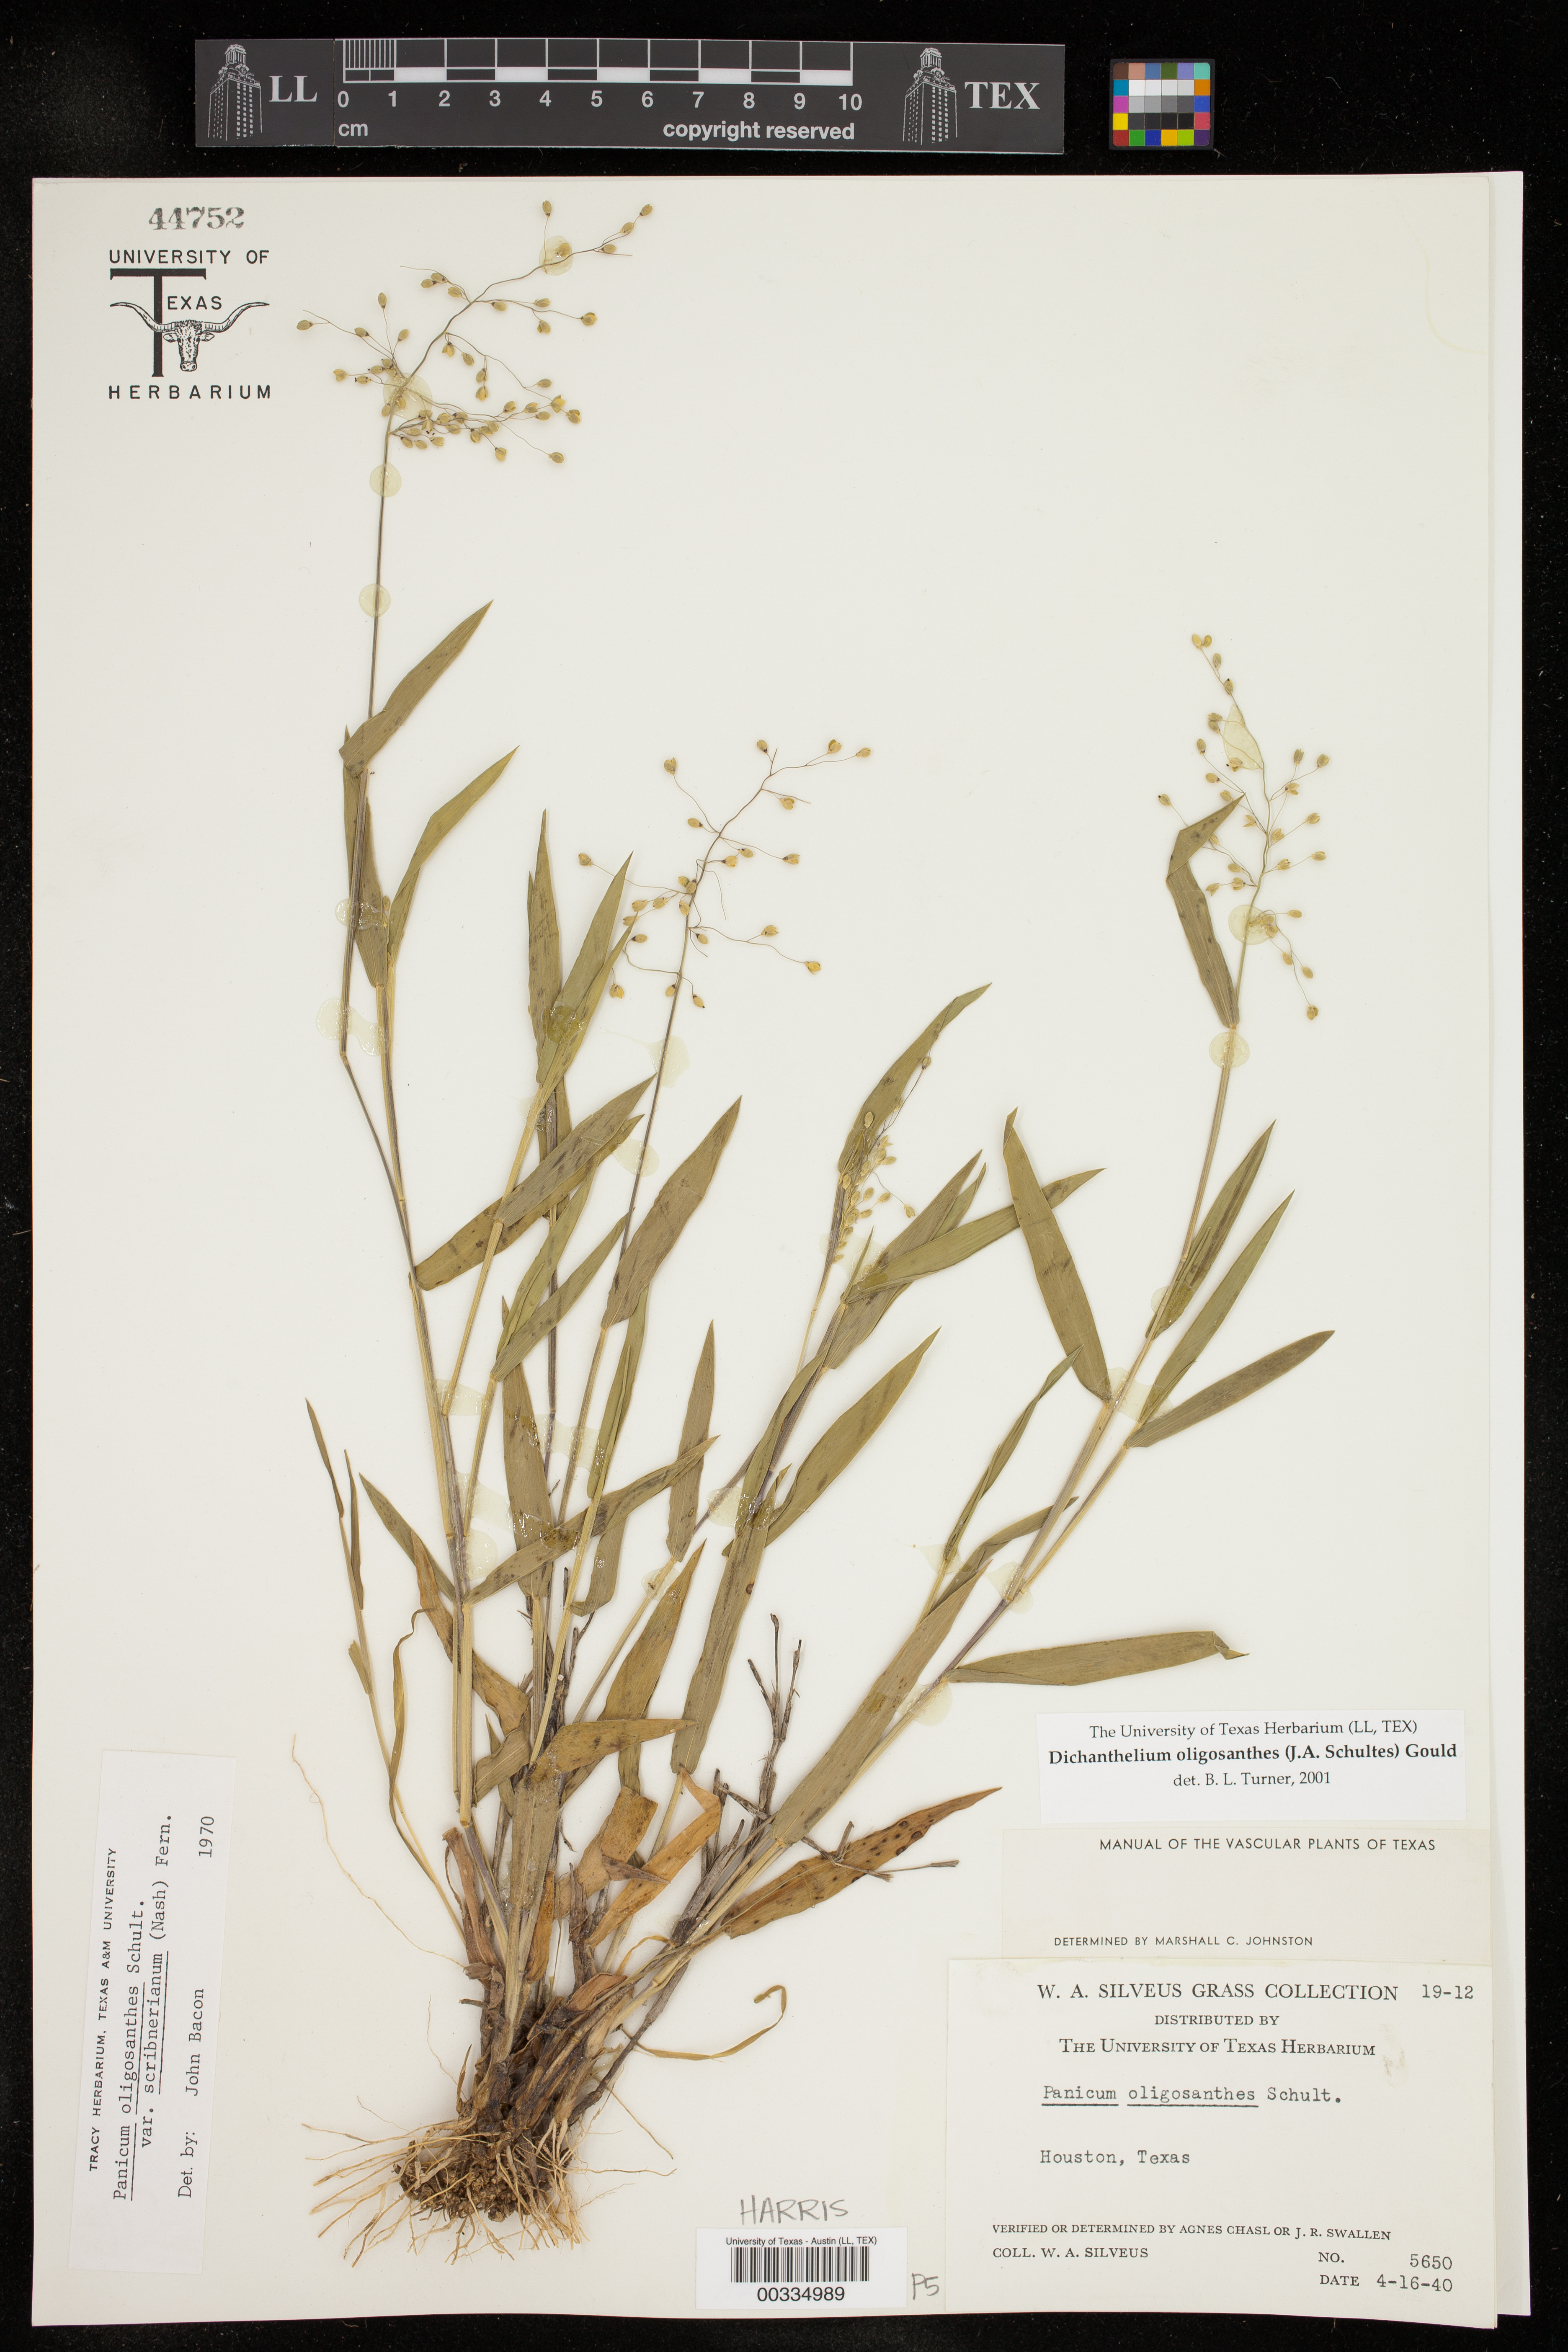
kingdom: Plantae
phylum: Tracheophyta
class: Liliopsida
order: Poales
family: Poaceae
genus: Dichanthelium
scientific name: Dichanthelium oligosanthes
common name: Few-anther obscuregrass
